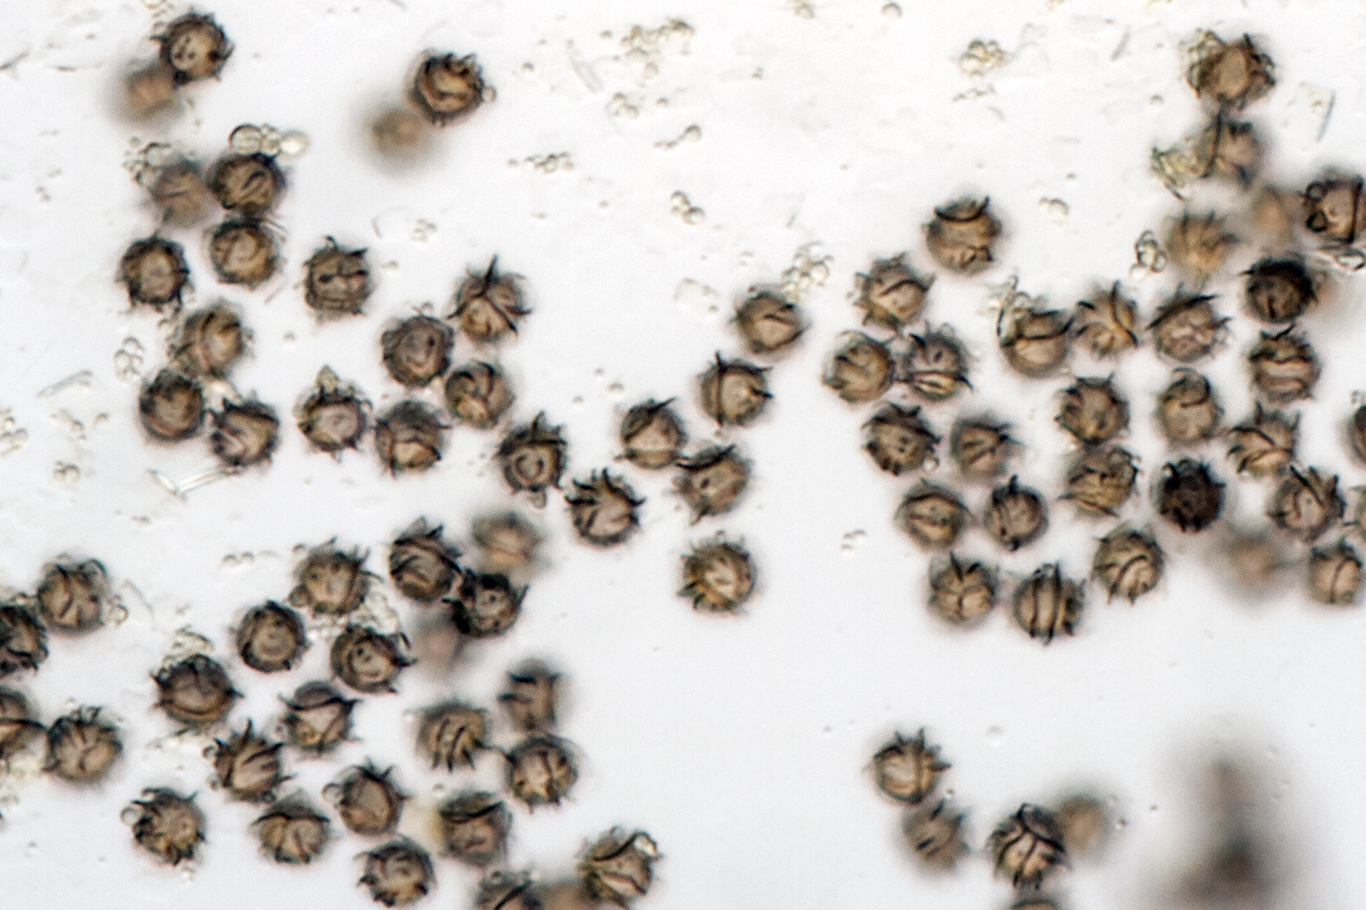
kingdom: Fungi
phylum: Basidiomycota
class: Agaricomycetes
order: Russulales
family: Russulaceae
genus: Lactarius
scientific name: Lactarius ruginosus
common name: gråbrun mælkehat
